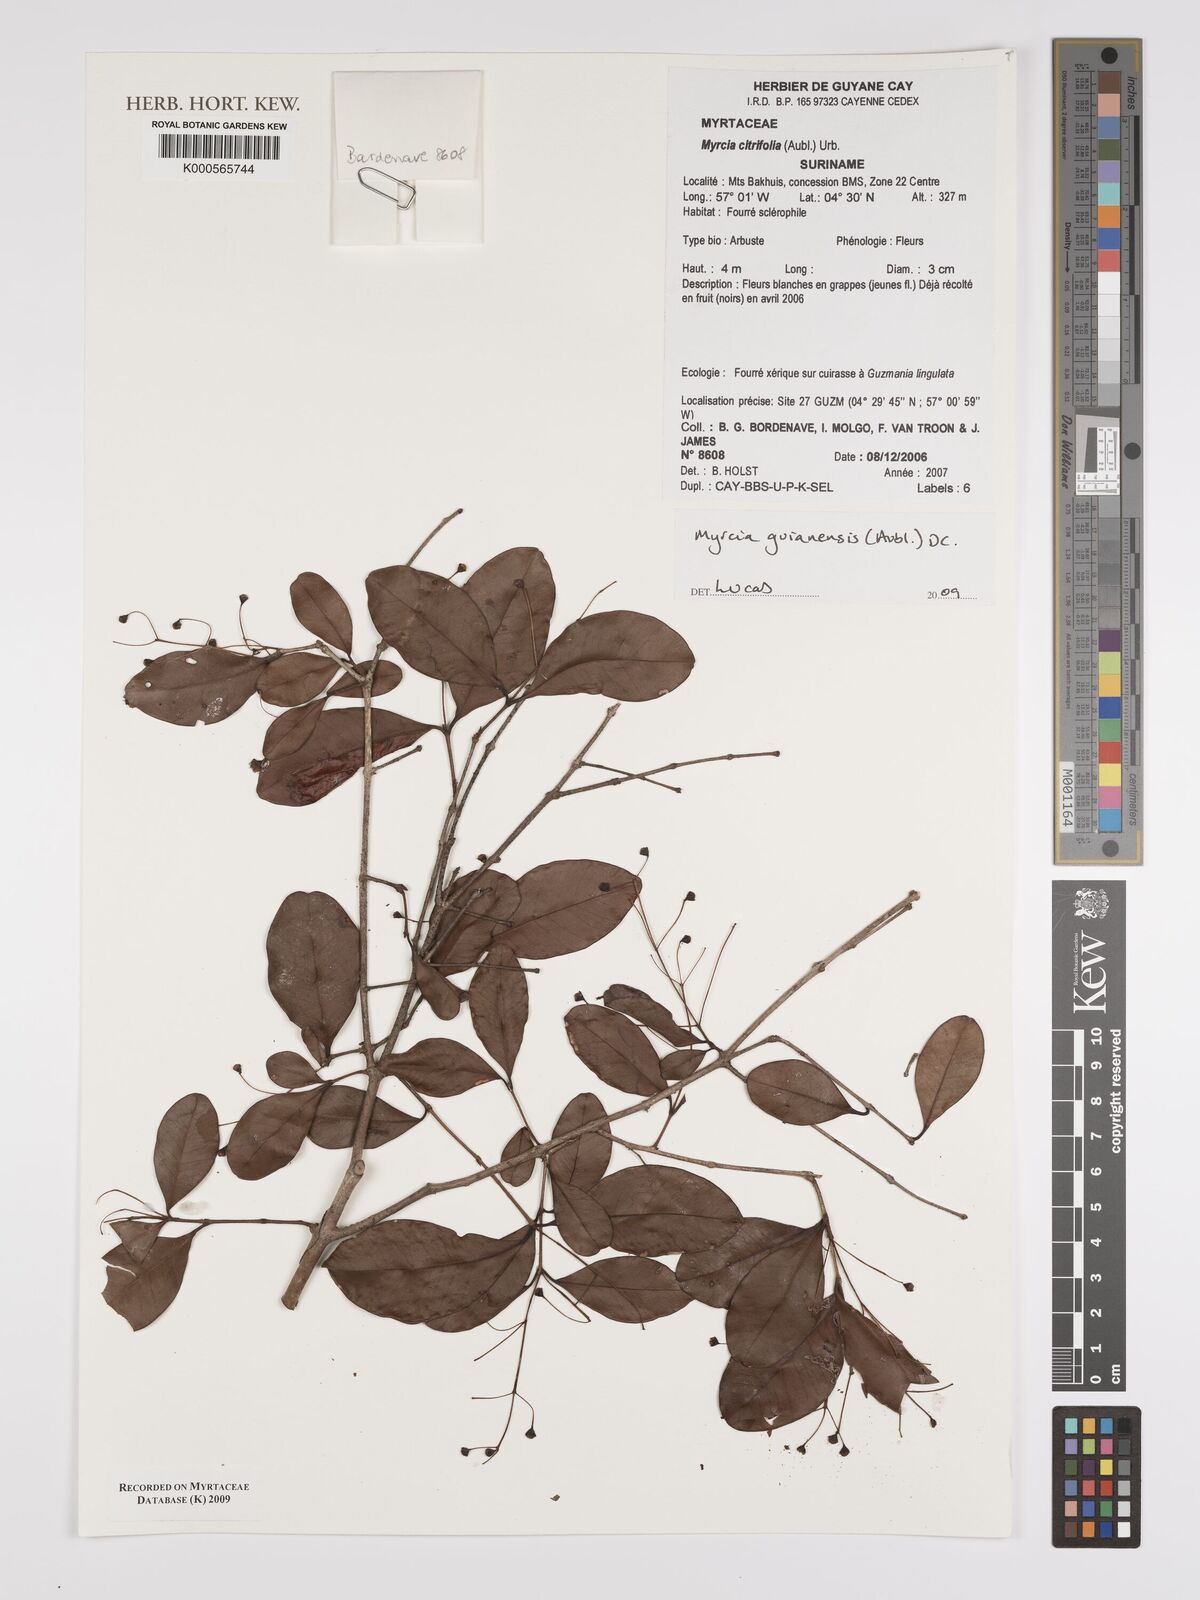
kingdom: Plantae
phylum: Tracheophyta
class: Magnoliopsida
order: Myrtales
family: Myrtaceae
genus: Myrcia
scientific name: Myrcia guianensis
